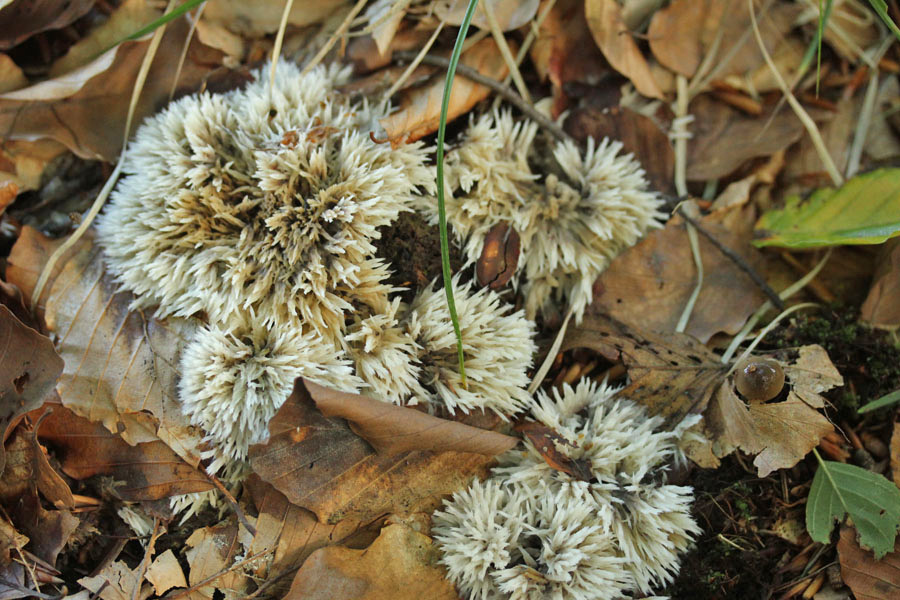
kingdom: Fungi
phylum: Basidiomycota
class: Agaricomycetes
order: Thelephorales
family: Thelephoraceae
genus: Thelephora
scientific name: Thelephora penicillata
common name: fladtrådt frynsesvamp
